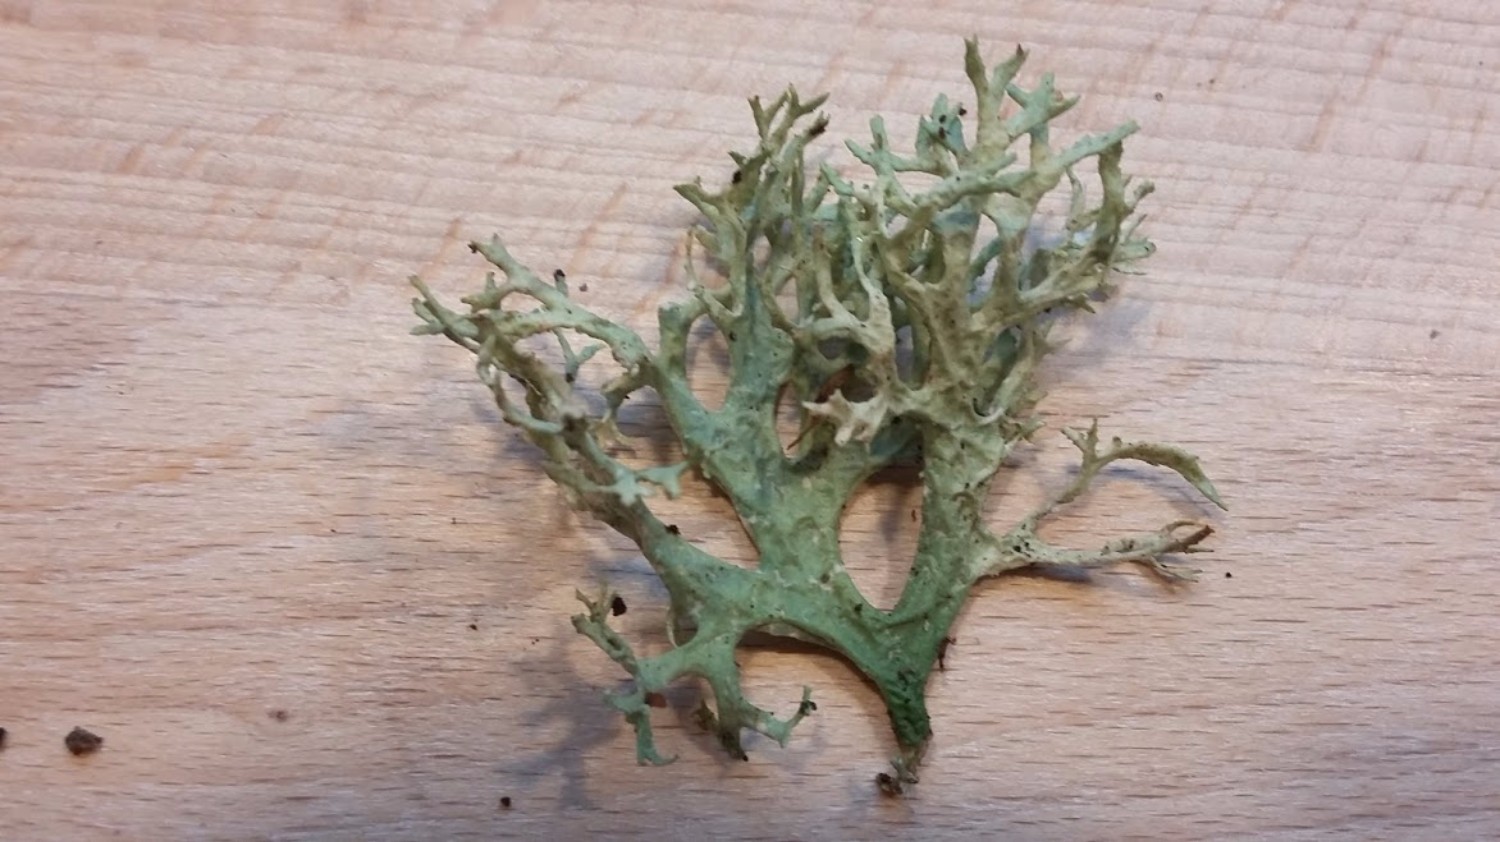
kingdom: Fungi
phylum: Ascomycota
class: Lecanoromycetes
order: Lecanorales
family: Parmeliaceae
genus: Evernia
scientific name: Evernia prunastri
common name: almindelig slåenlav
